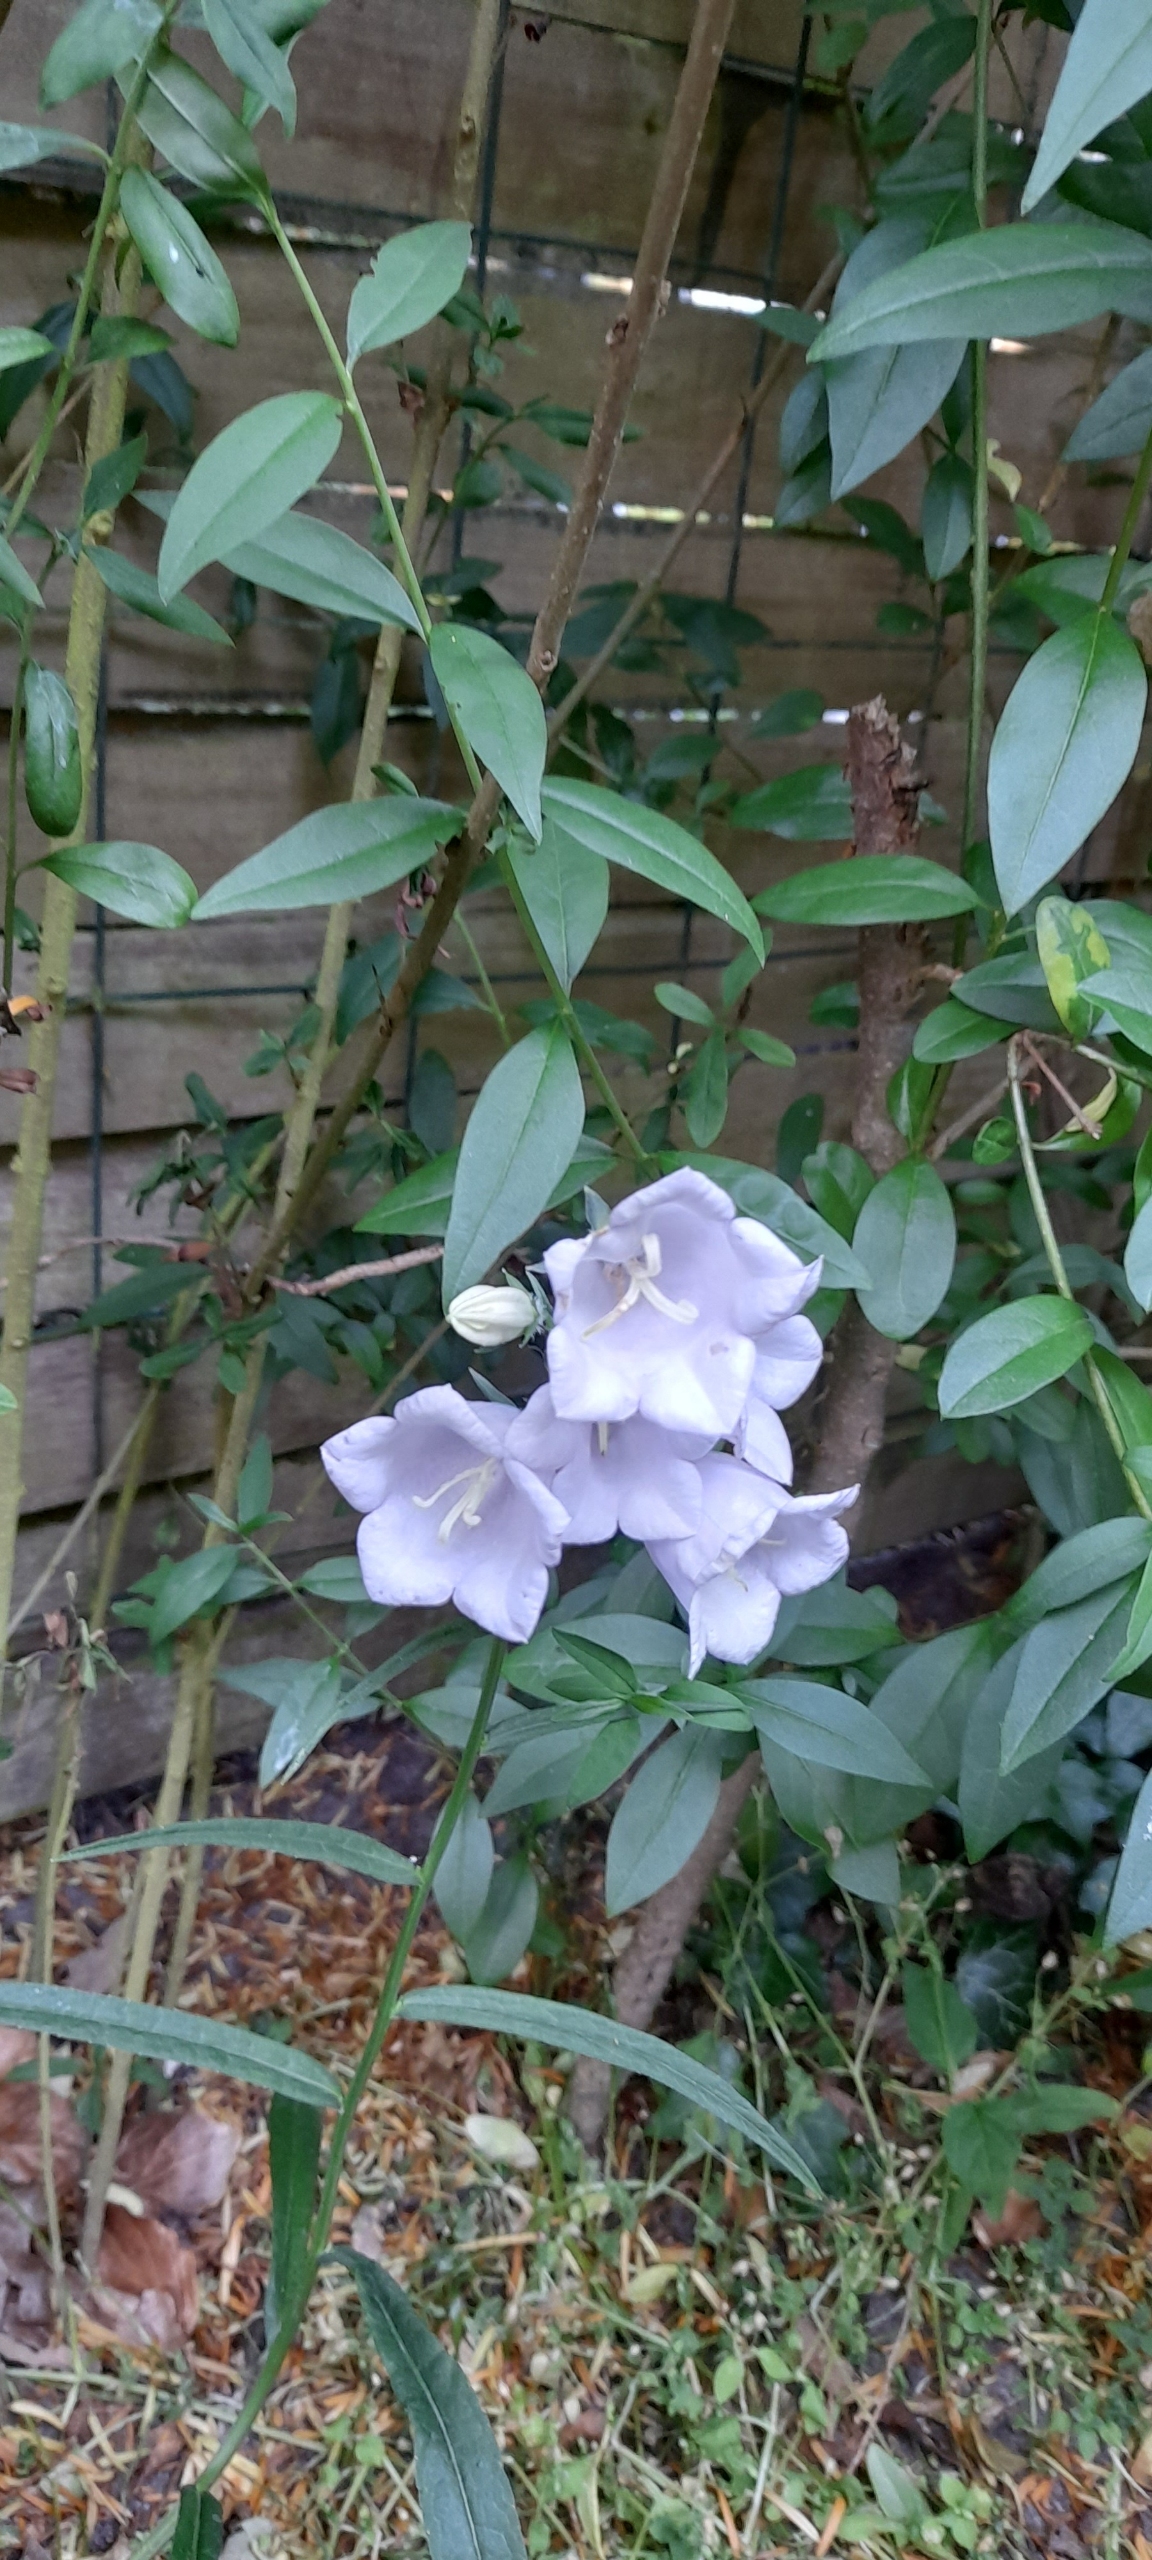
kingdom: Plantae
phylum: Tracheophyta
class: Magnoliopsida
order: Asterales
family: Campanulaceae
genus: Campanula
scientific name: Campanula persicifolia
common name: Smalbladet klokke
